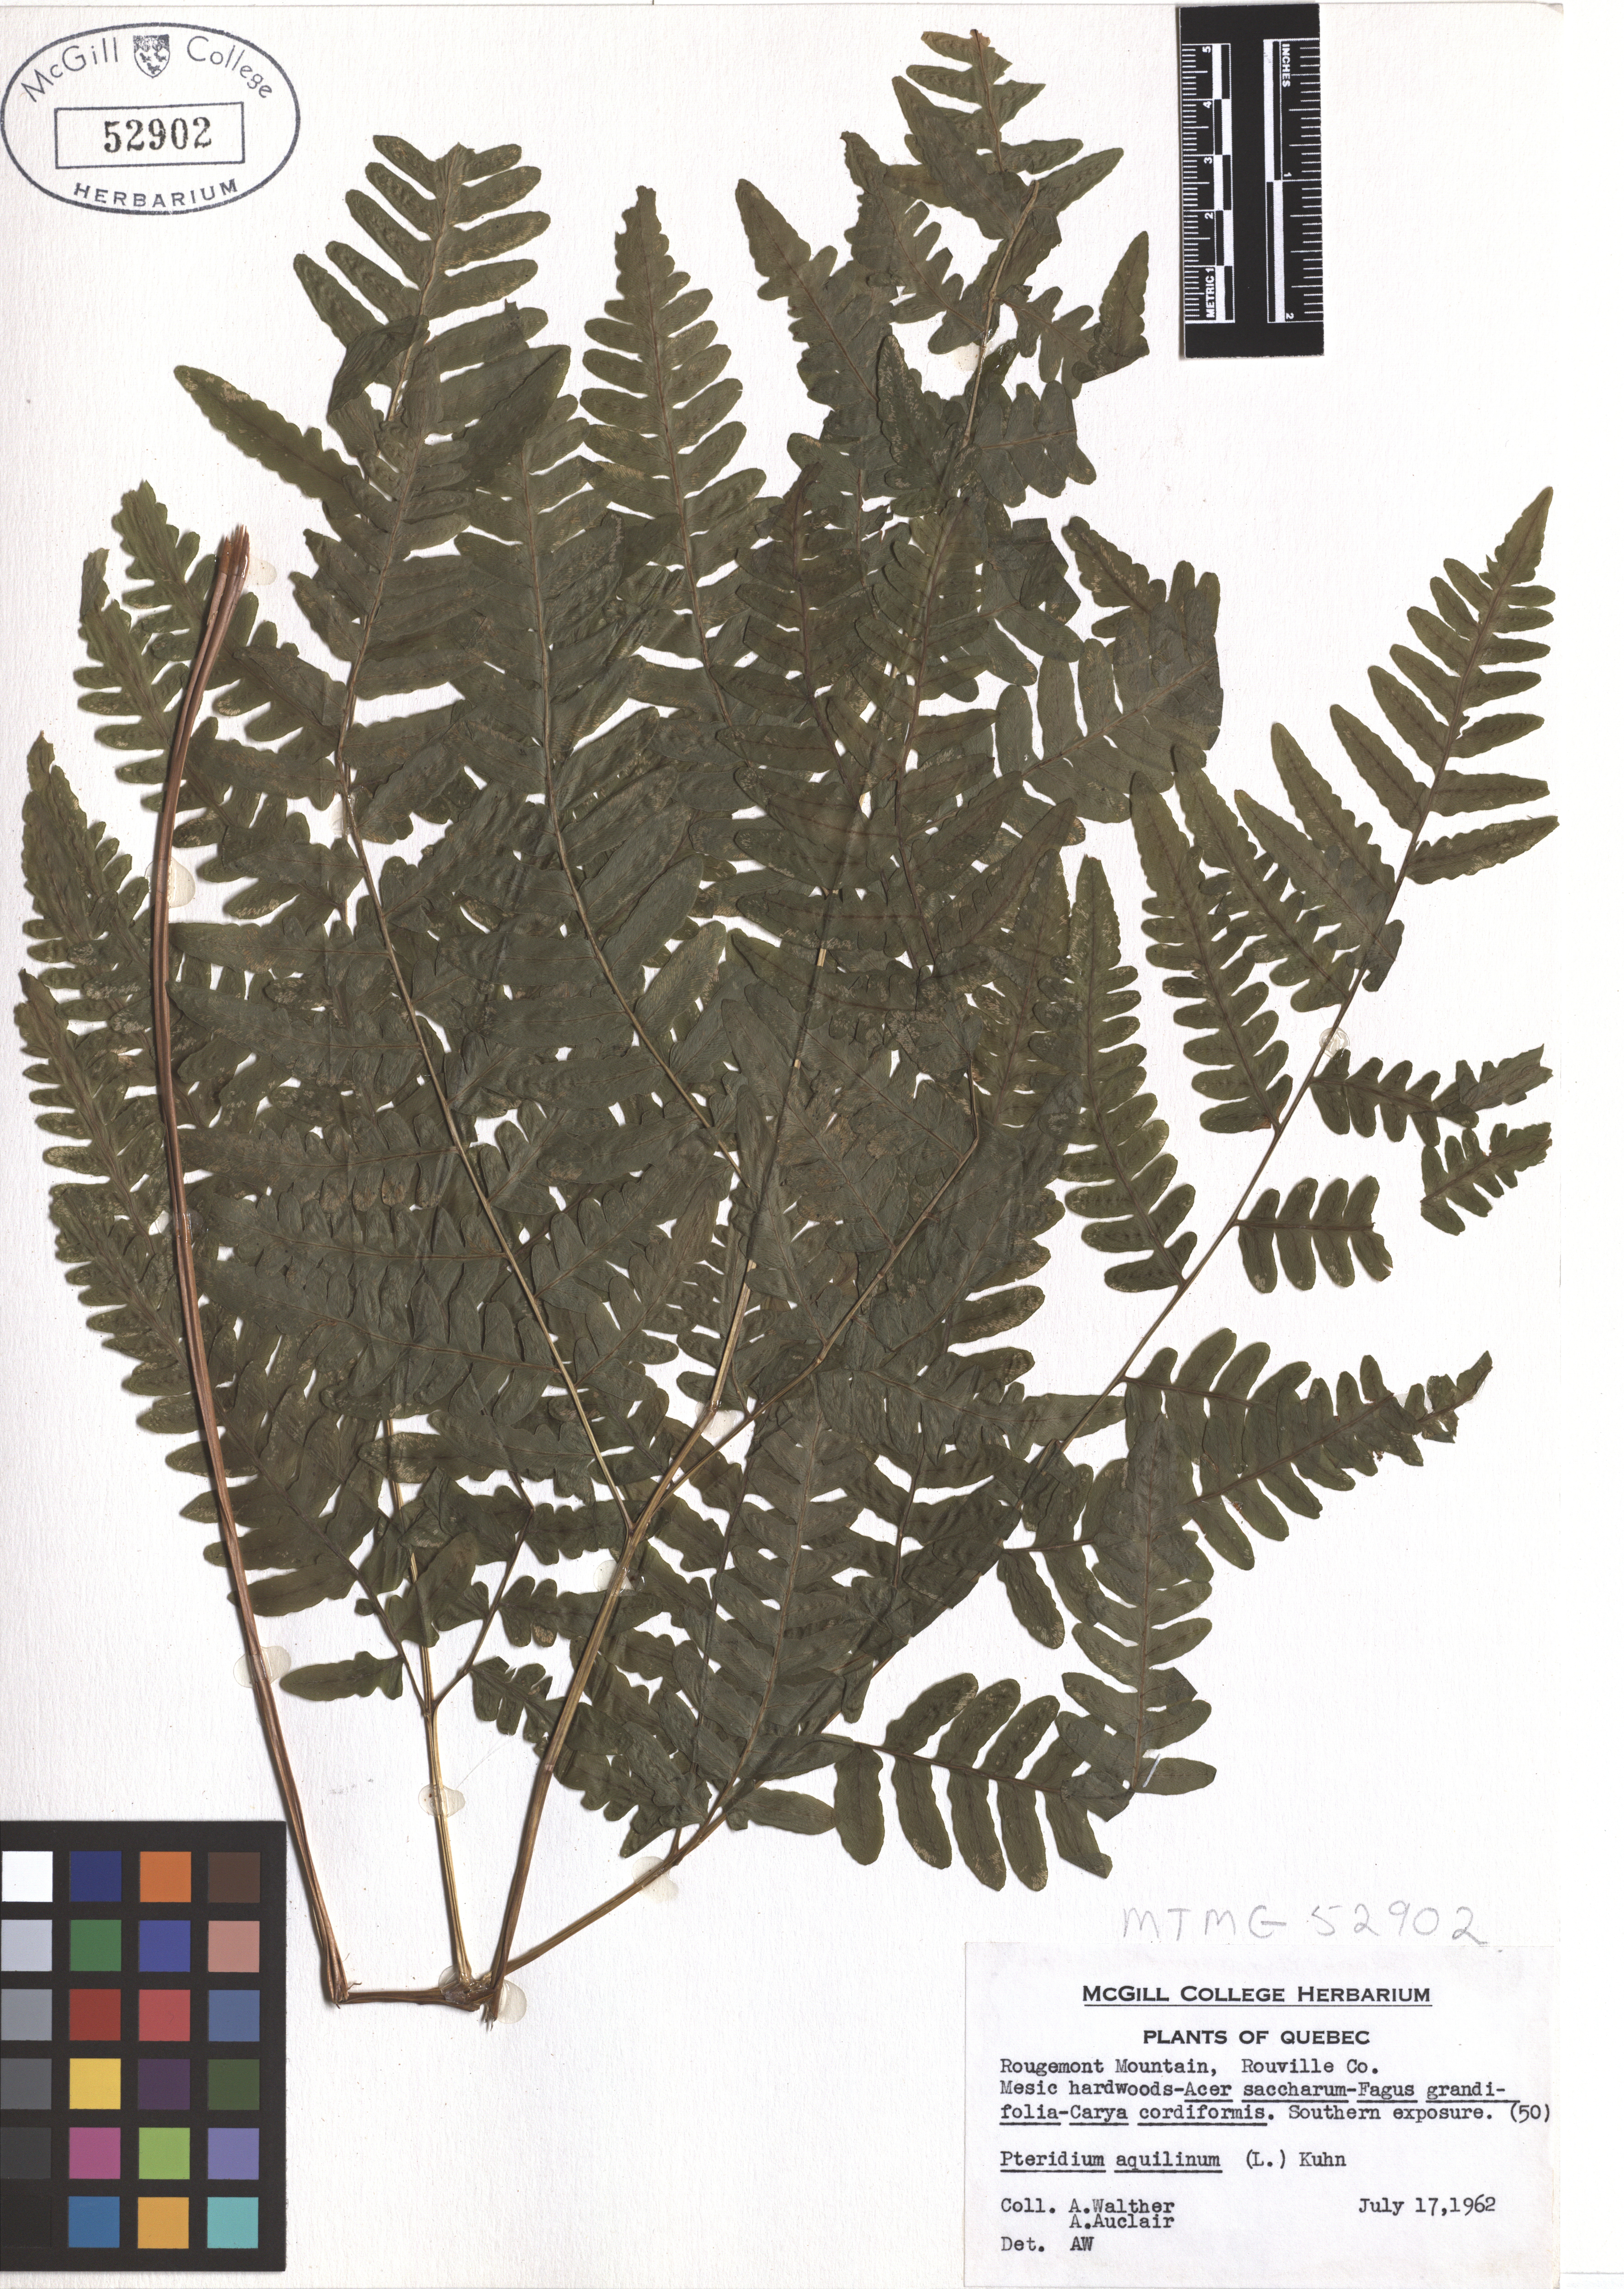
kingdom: Plantae
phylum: Tracheophyta
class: Polypodiopsida
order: Polypodiales
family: Dennstaedtiaceae
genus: Pteridium
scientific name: Pteridium aquilinum
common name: Bracken
